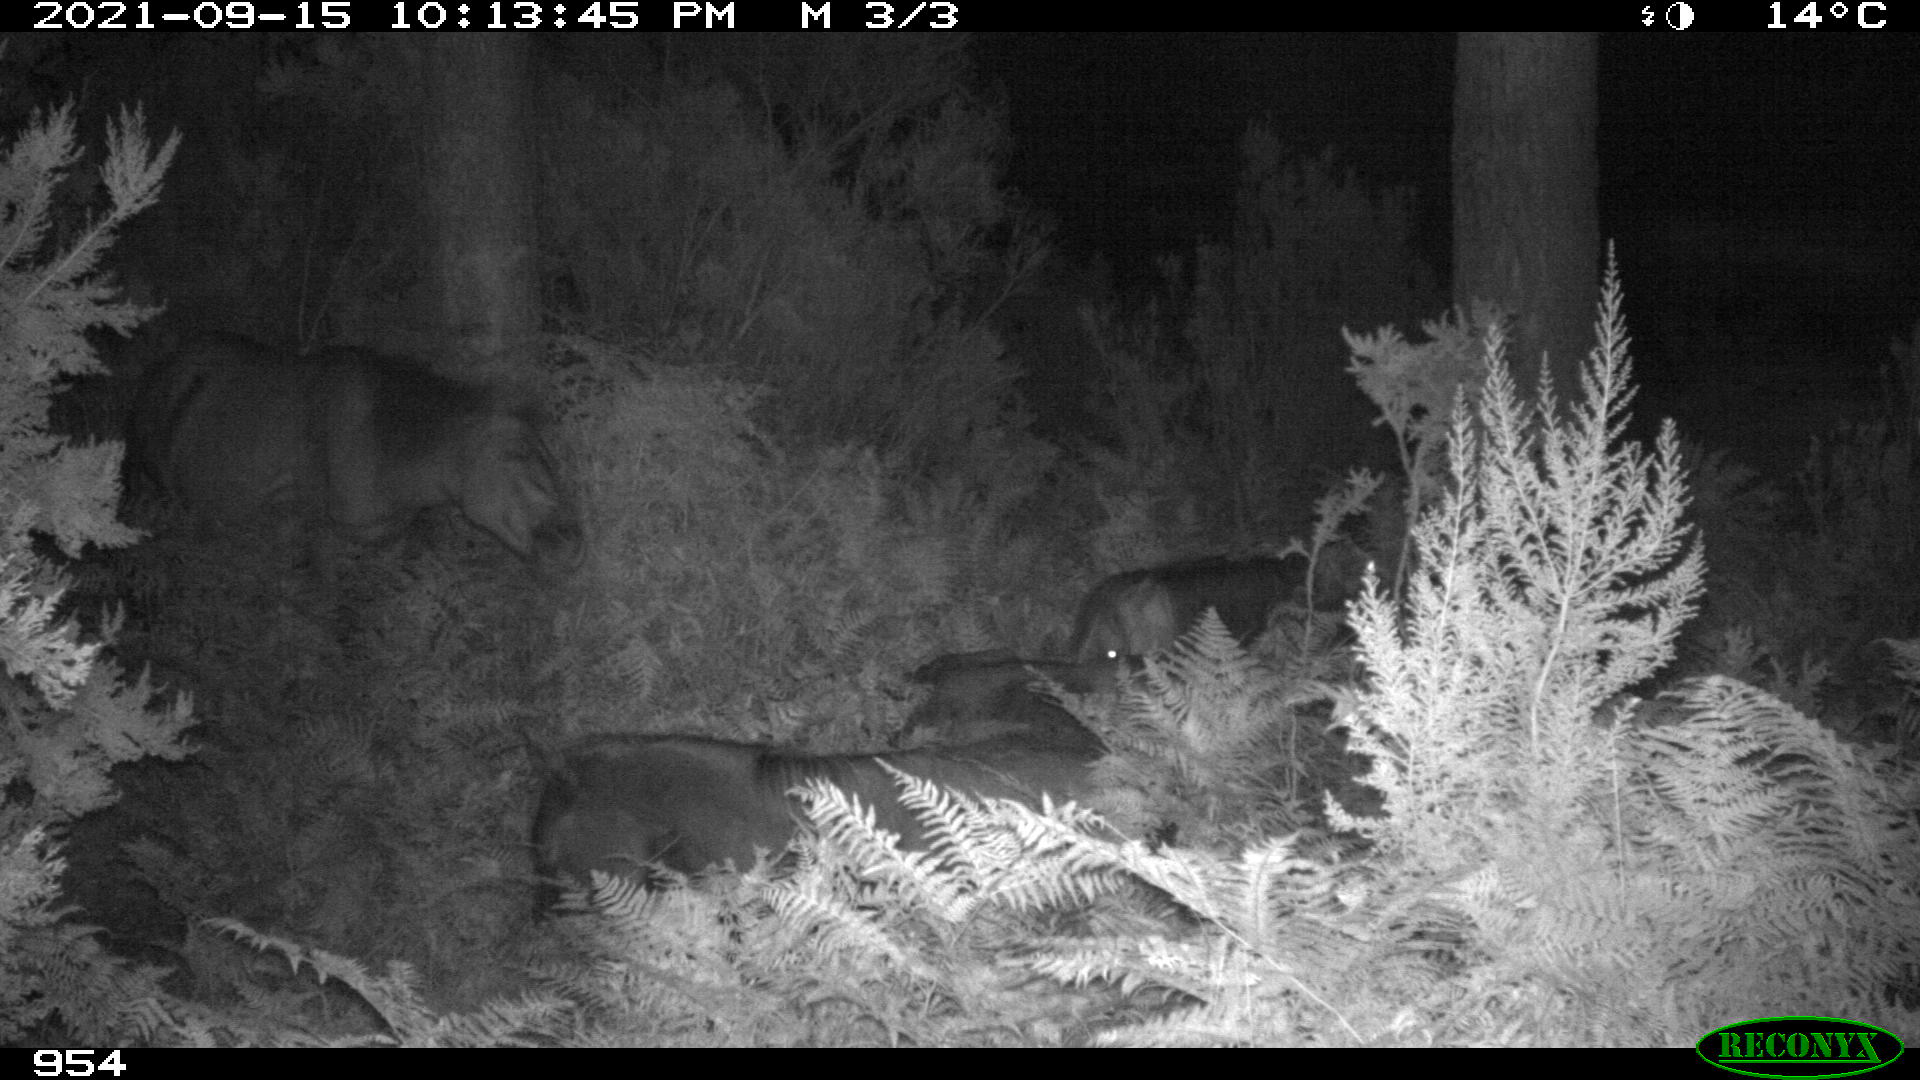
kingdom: Animalia
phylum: Chordata
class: Mammalia
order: Perissodactyla
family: Equidae
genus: Equus
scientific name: Equus caballus
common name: Horse
